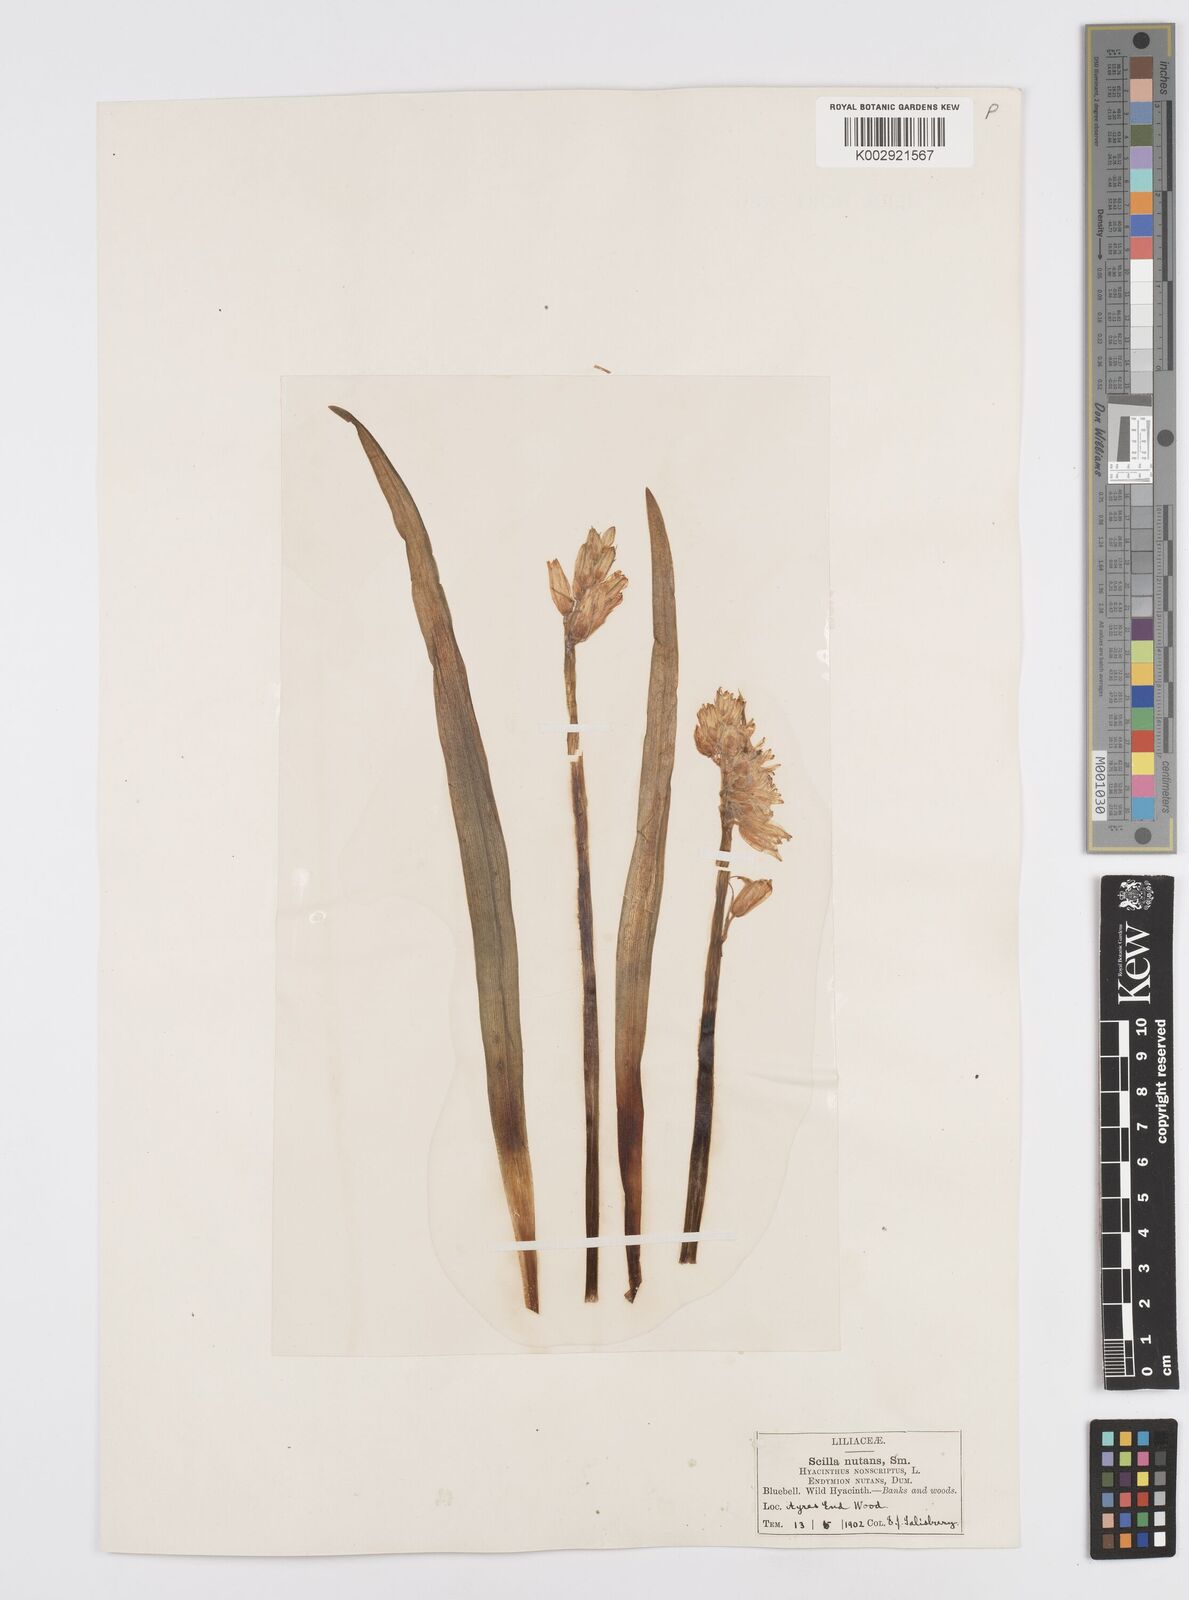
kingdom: Plantae
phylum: Tracheophyta
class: Liliopsida
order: Asparagales
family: Asparagaceae
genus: Hyacinthoides
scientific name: Hyacinthoides non-scripta
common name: Bluebell
